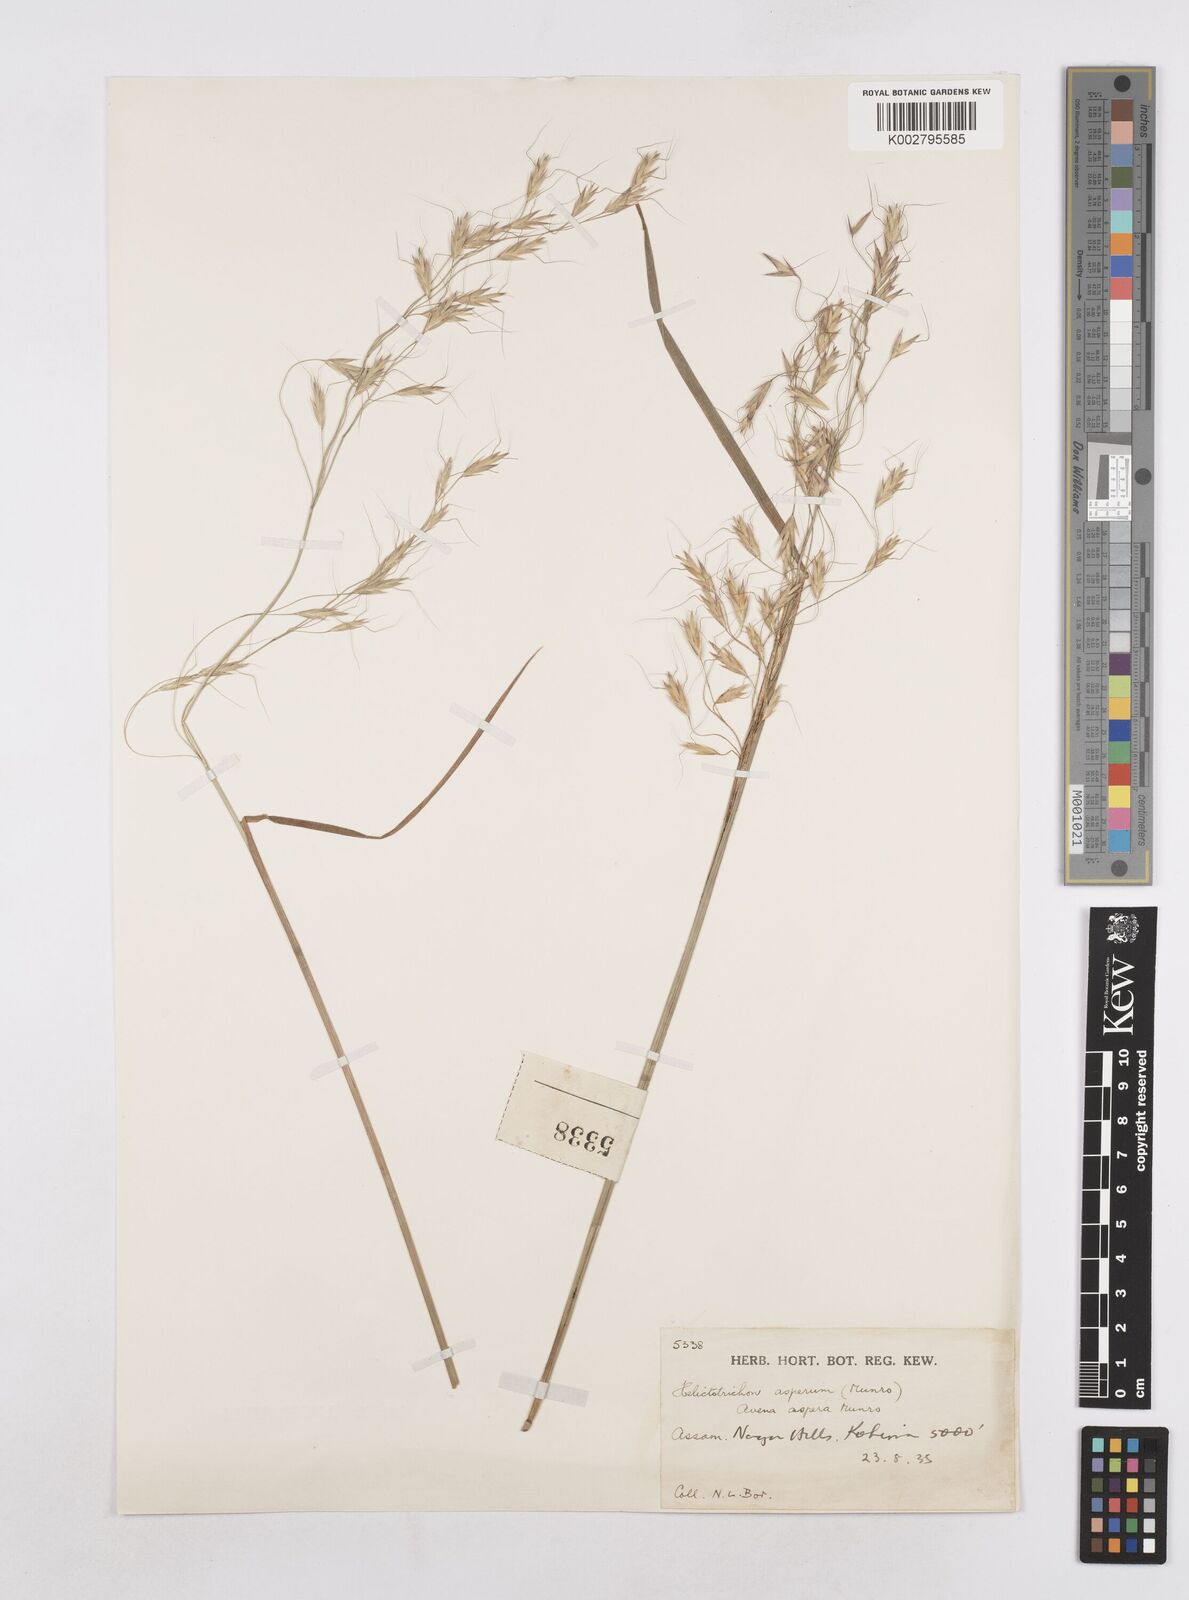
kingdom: Plantae
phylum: Tracheophyta
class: Liliopsida
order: Poales
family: Poaceae
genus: Trisetopsis
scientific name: Trisetopsis junghuhnii
